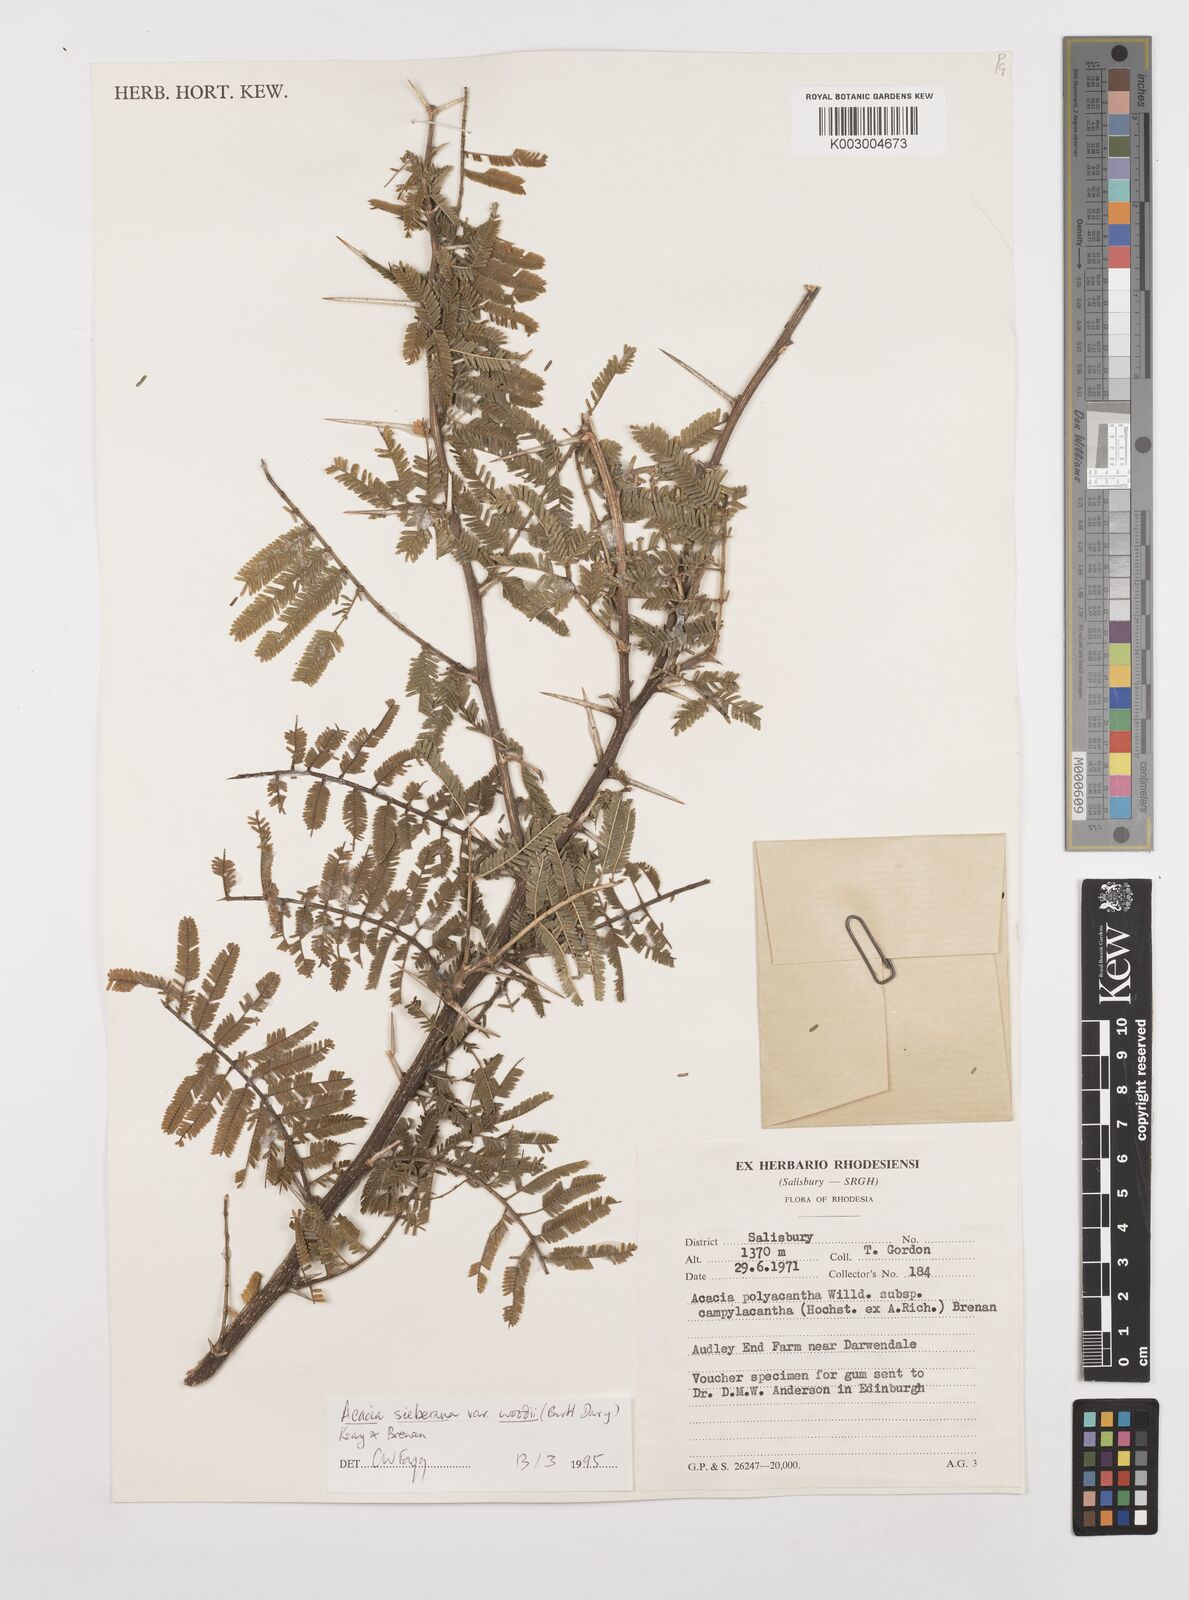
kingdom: Plantae
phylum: Tracheophyta
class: Magnoliopsida
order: Fabales
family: Fabaceae
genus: Vachellia
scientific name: Vachellia sieberiana
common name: Flat-topped thorn
